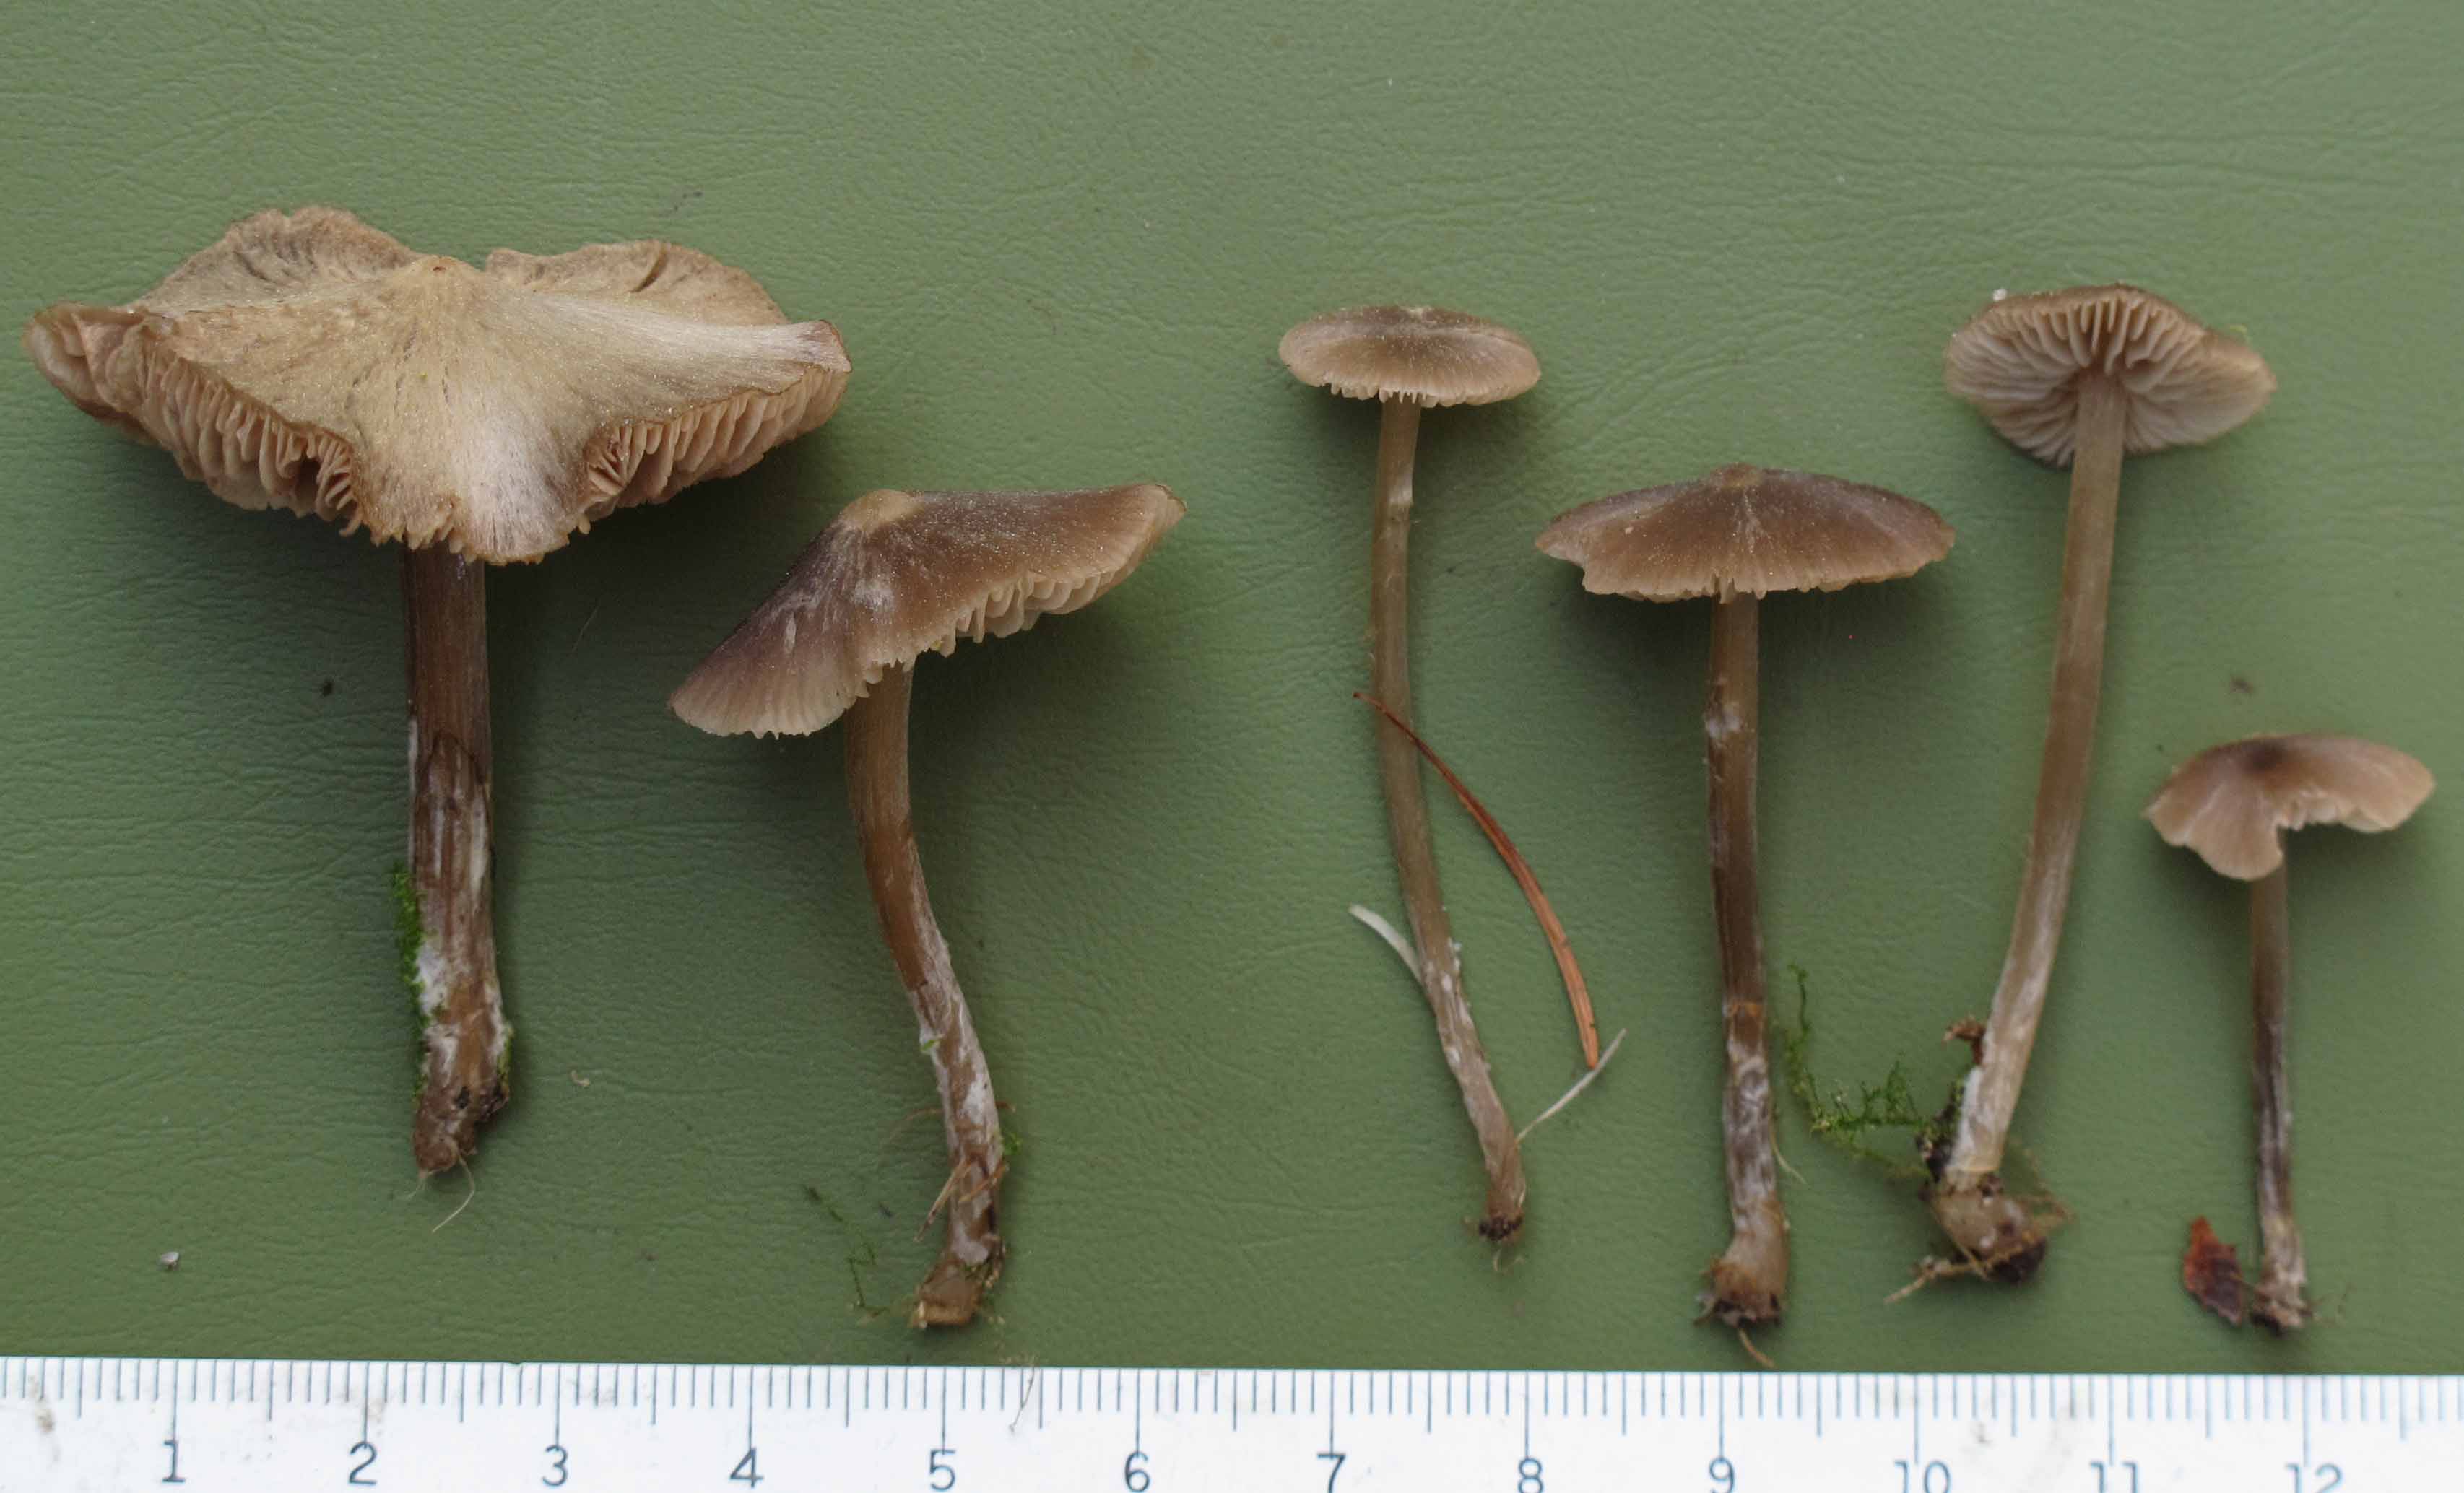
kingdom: Fungi
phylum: Basidiomycota
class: Agaricomycetes
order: Agaricales
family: Entolomataceae
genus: Entoloma
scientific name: Entoloma cuneatum
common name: dunstokket rødblad
